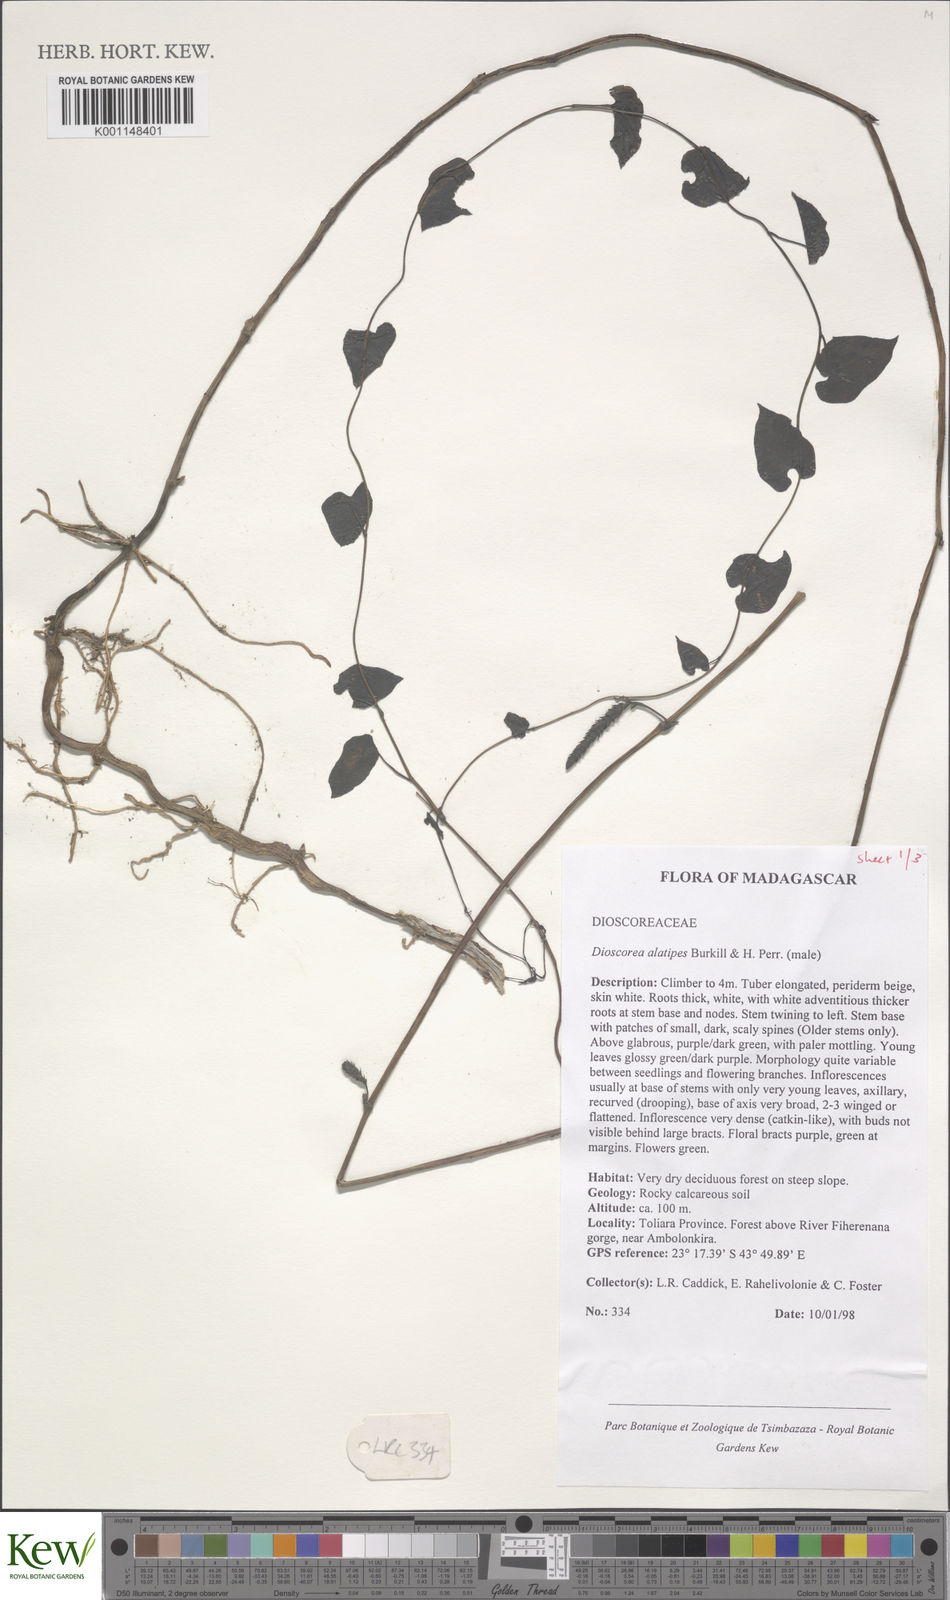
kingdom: Plantae
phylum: Tracheophyta
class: Liliopsida
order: Dioscoreales
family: Dioscoreaceae
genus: Dioscorea
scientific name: Dioscorea alatipes
